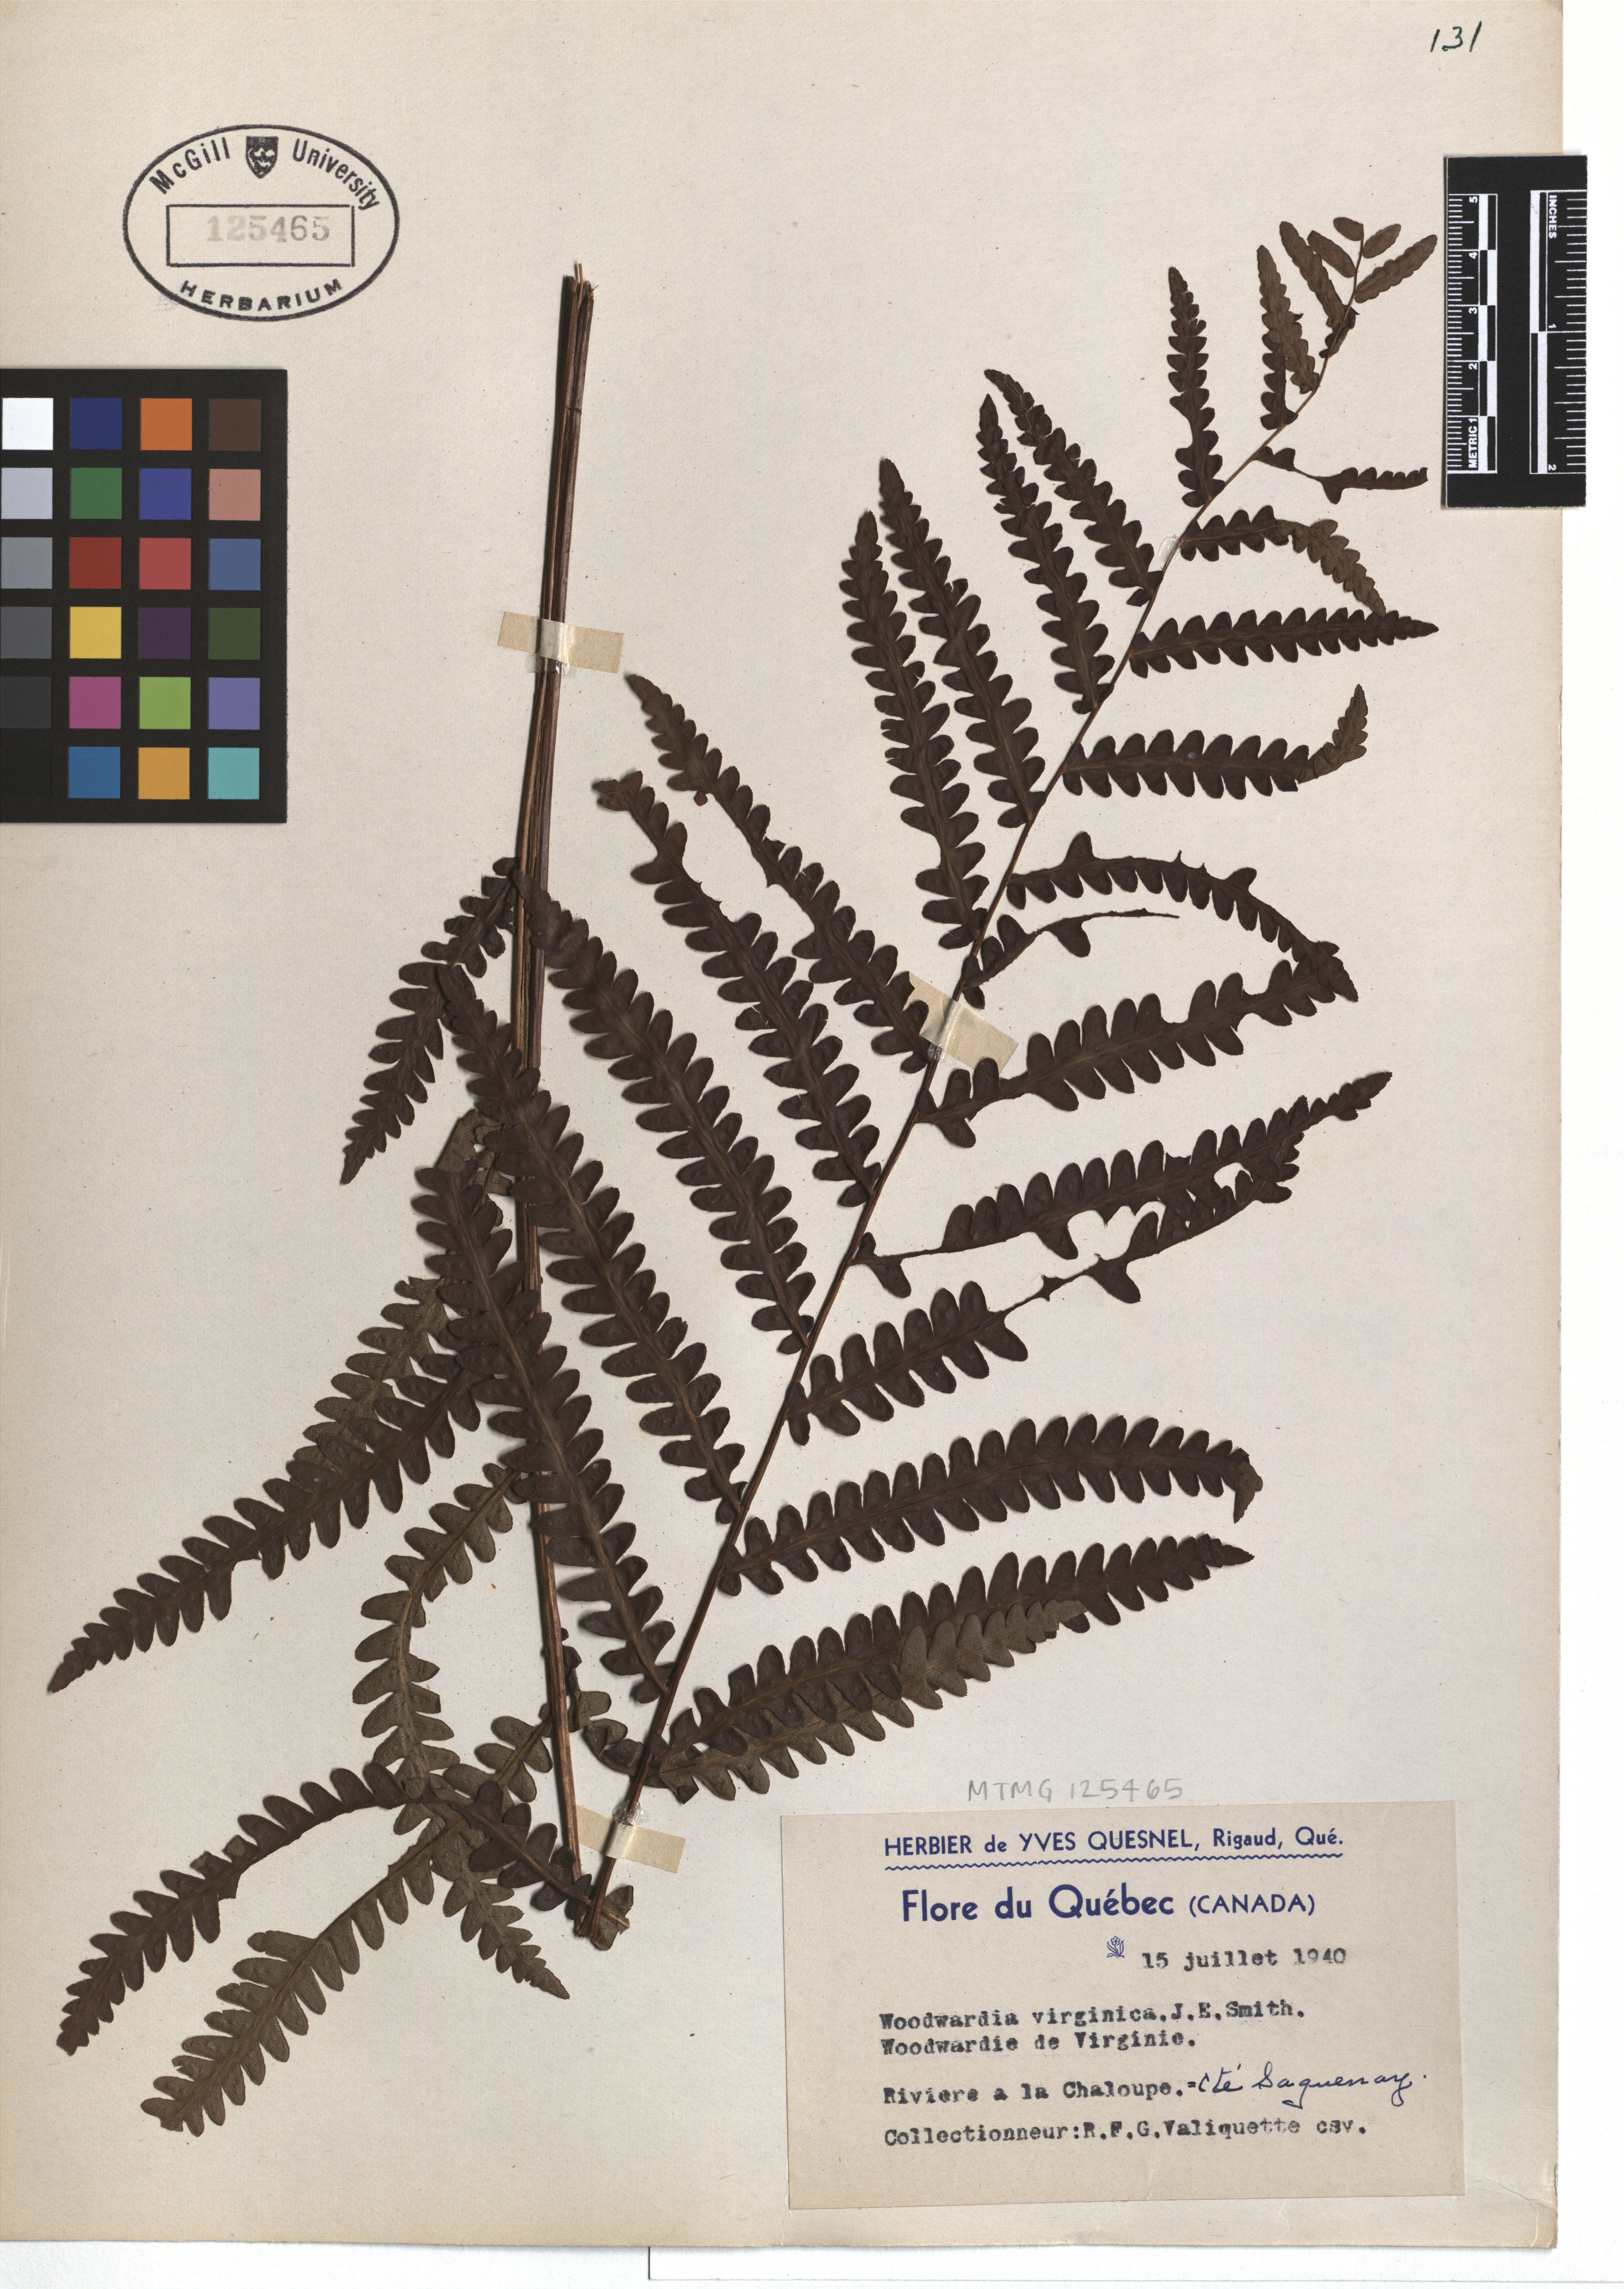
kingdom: Plantae
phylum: Tracheophyta
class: Polypodiopsida
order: Polypodiales
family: Blechnaceae
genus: Anchistea
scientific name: Anchistea virginica
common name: Virginia chain fern
